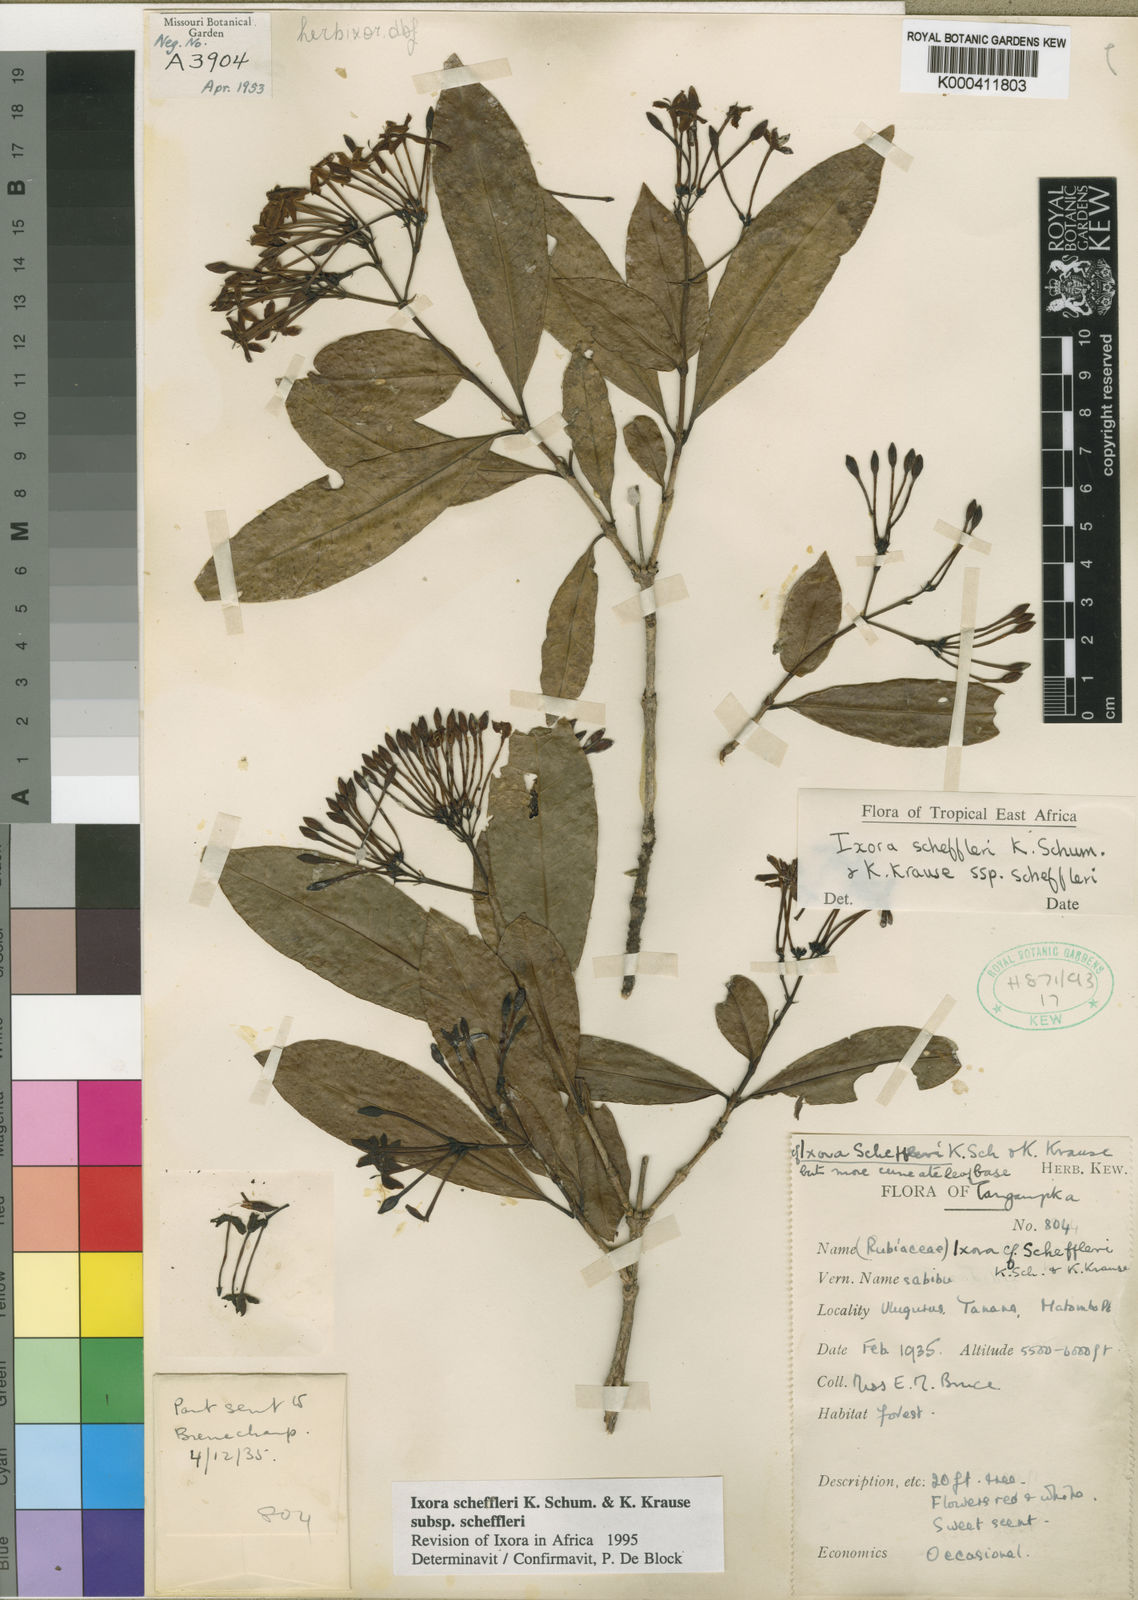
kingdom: Plantae
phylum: Tracheophyta
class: Magnoliopsida
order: Gentianales
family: Rubiaceae
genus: Ixora
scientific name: Ixora scheffleri
